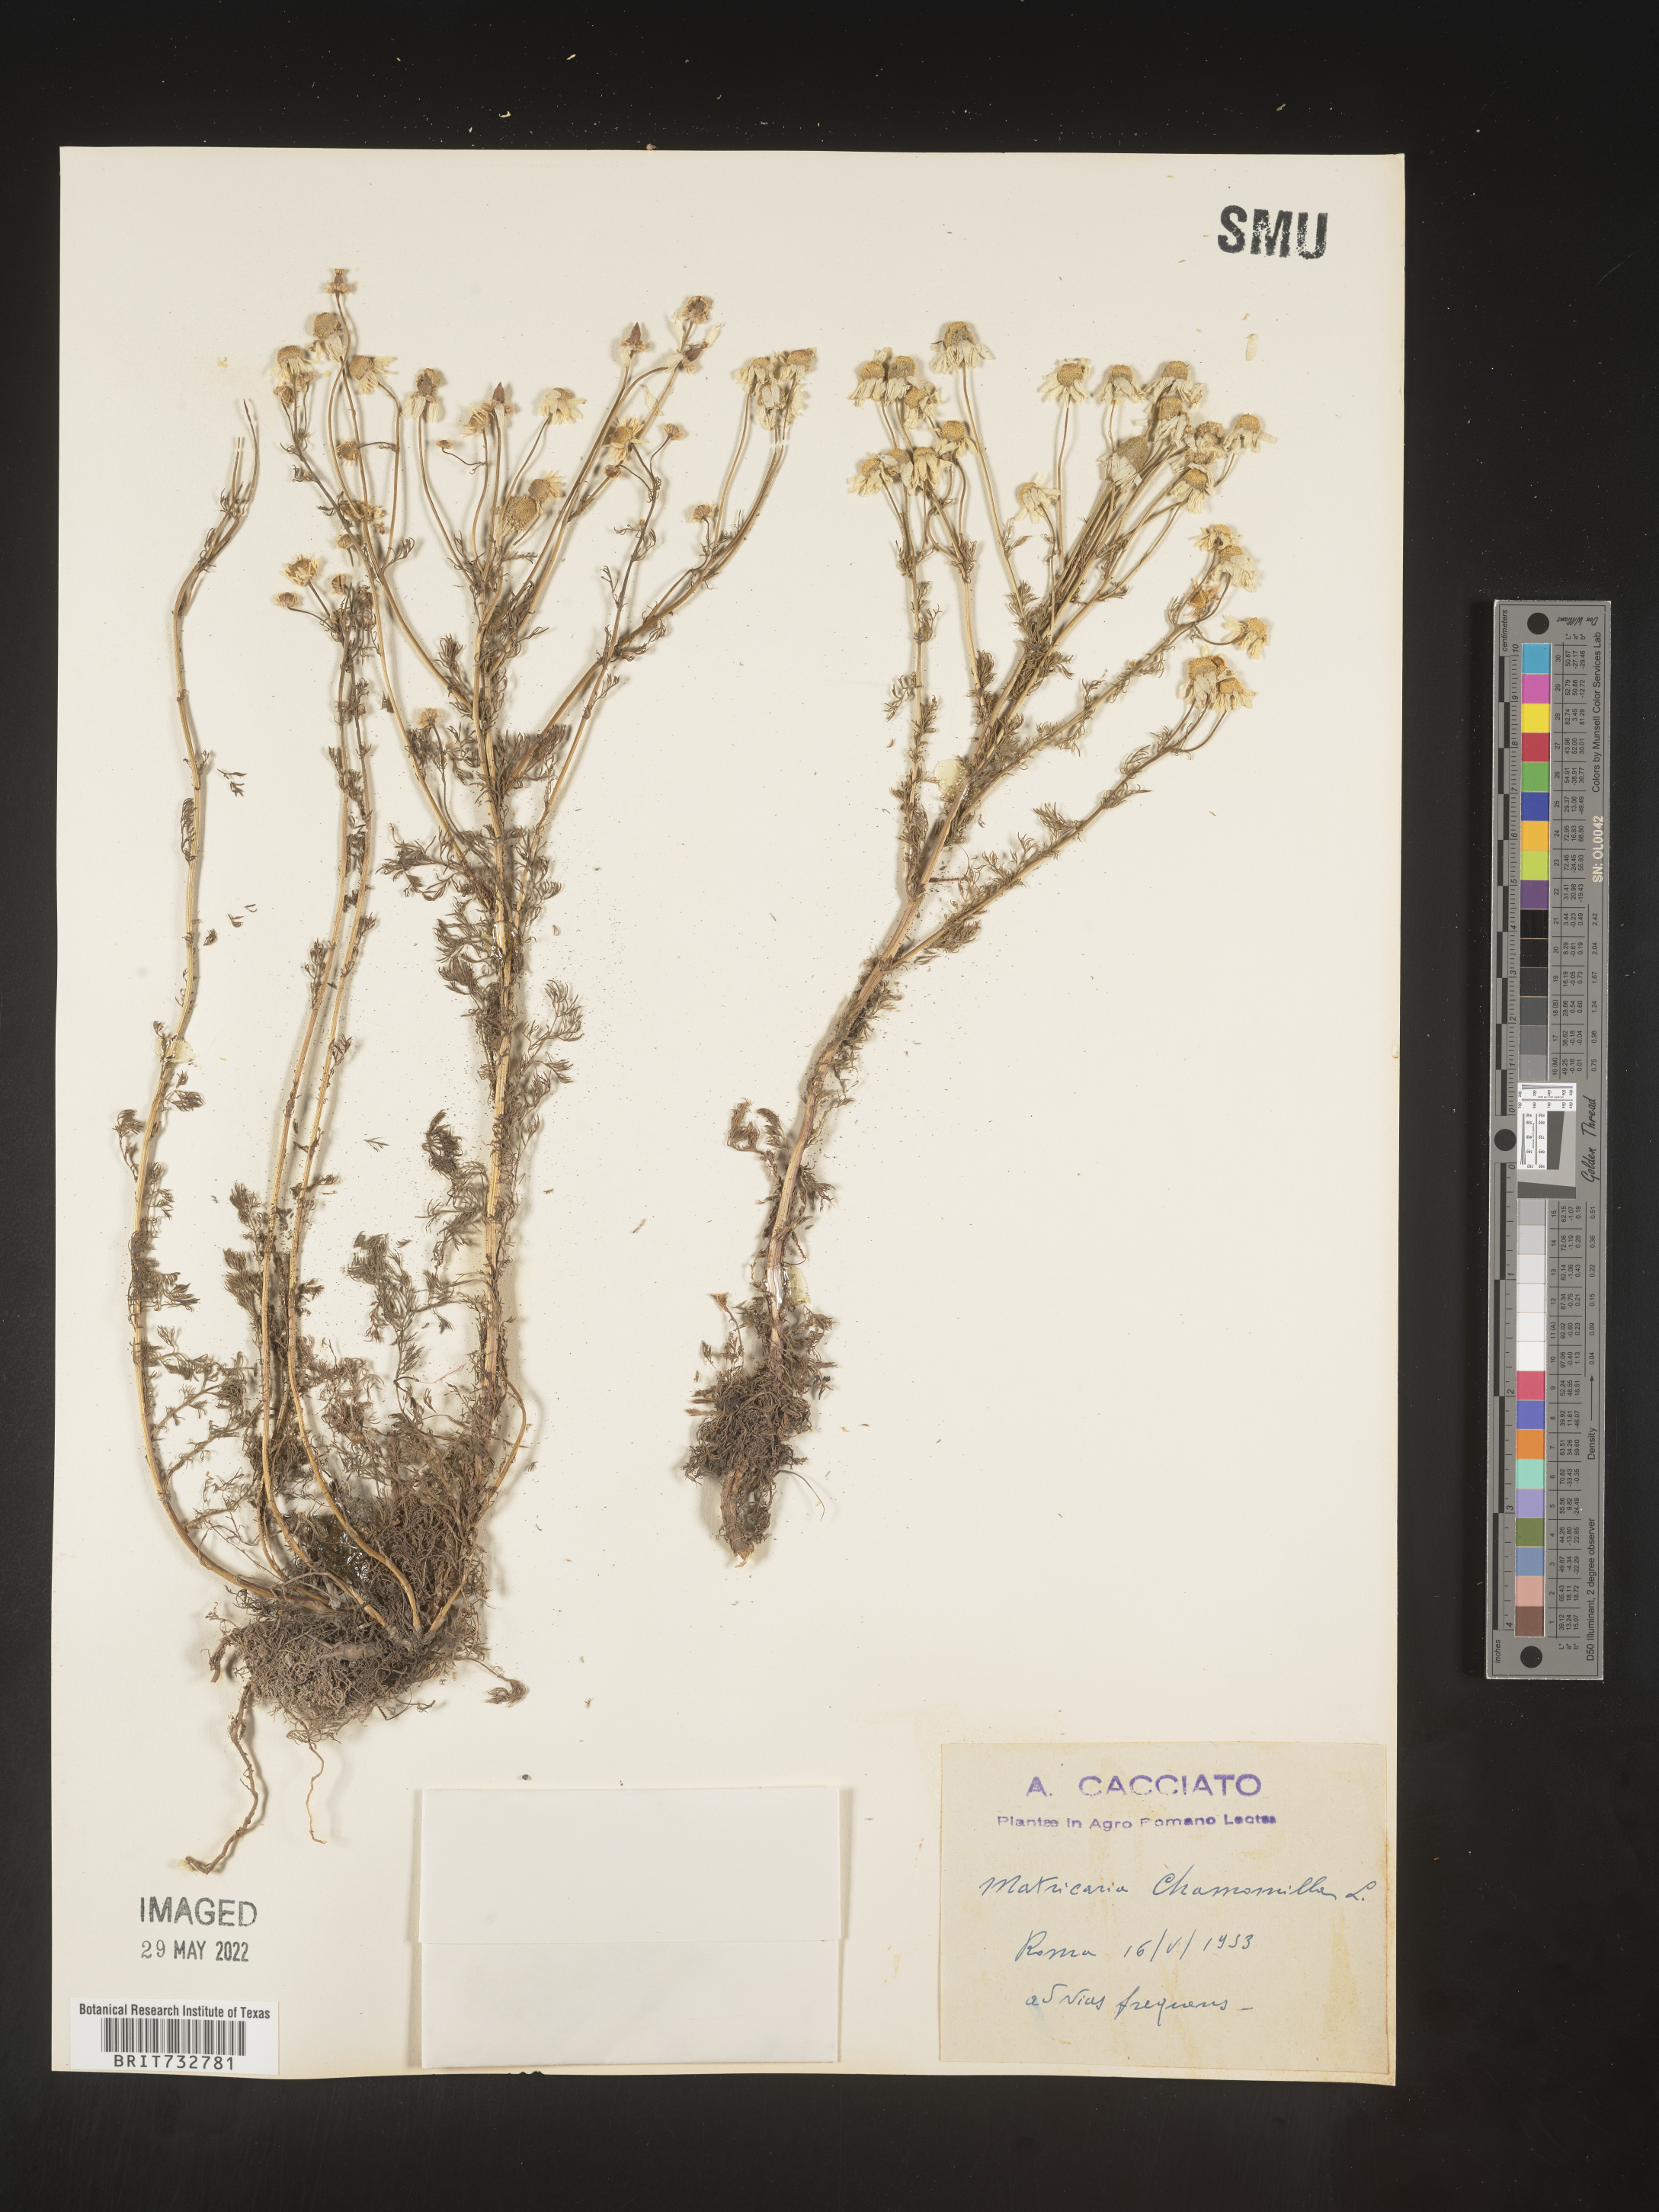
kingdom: Plantae
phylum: Tracheophyta
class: Magnoliopsida
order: Asterales
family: Asteraceae
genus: Matricaria
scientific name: Matricaria
